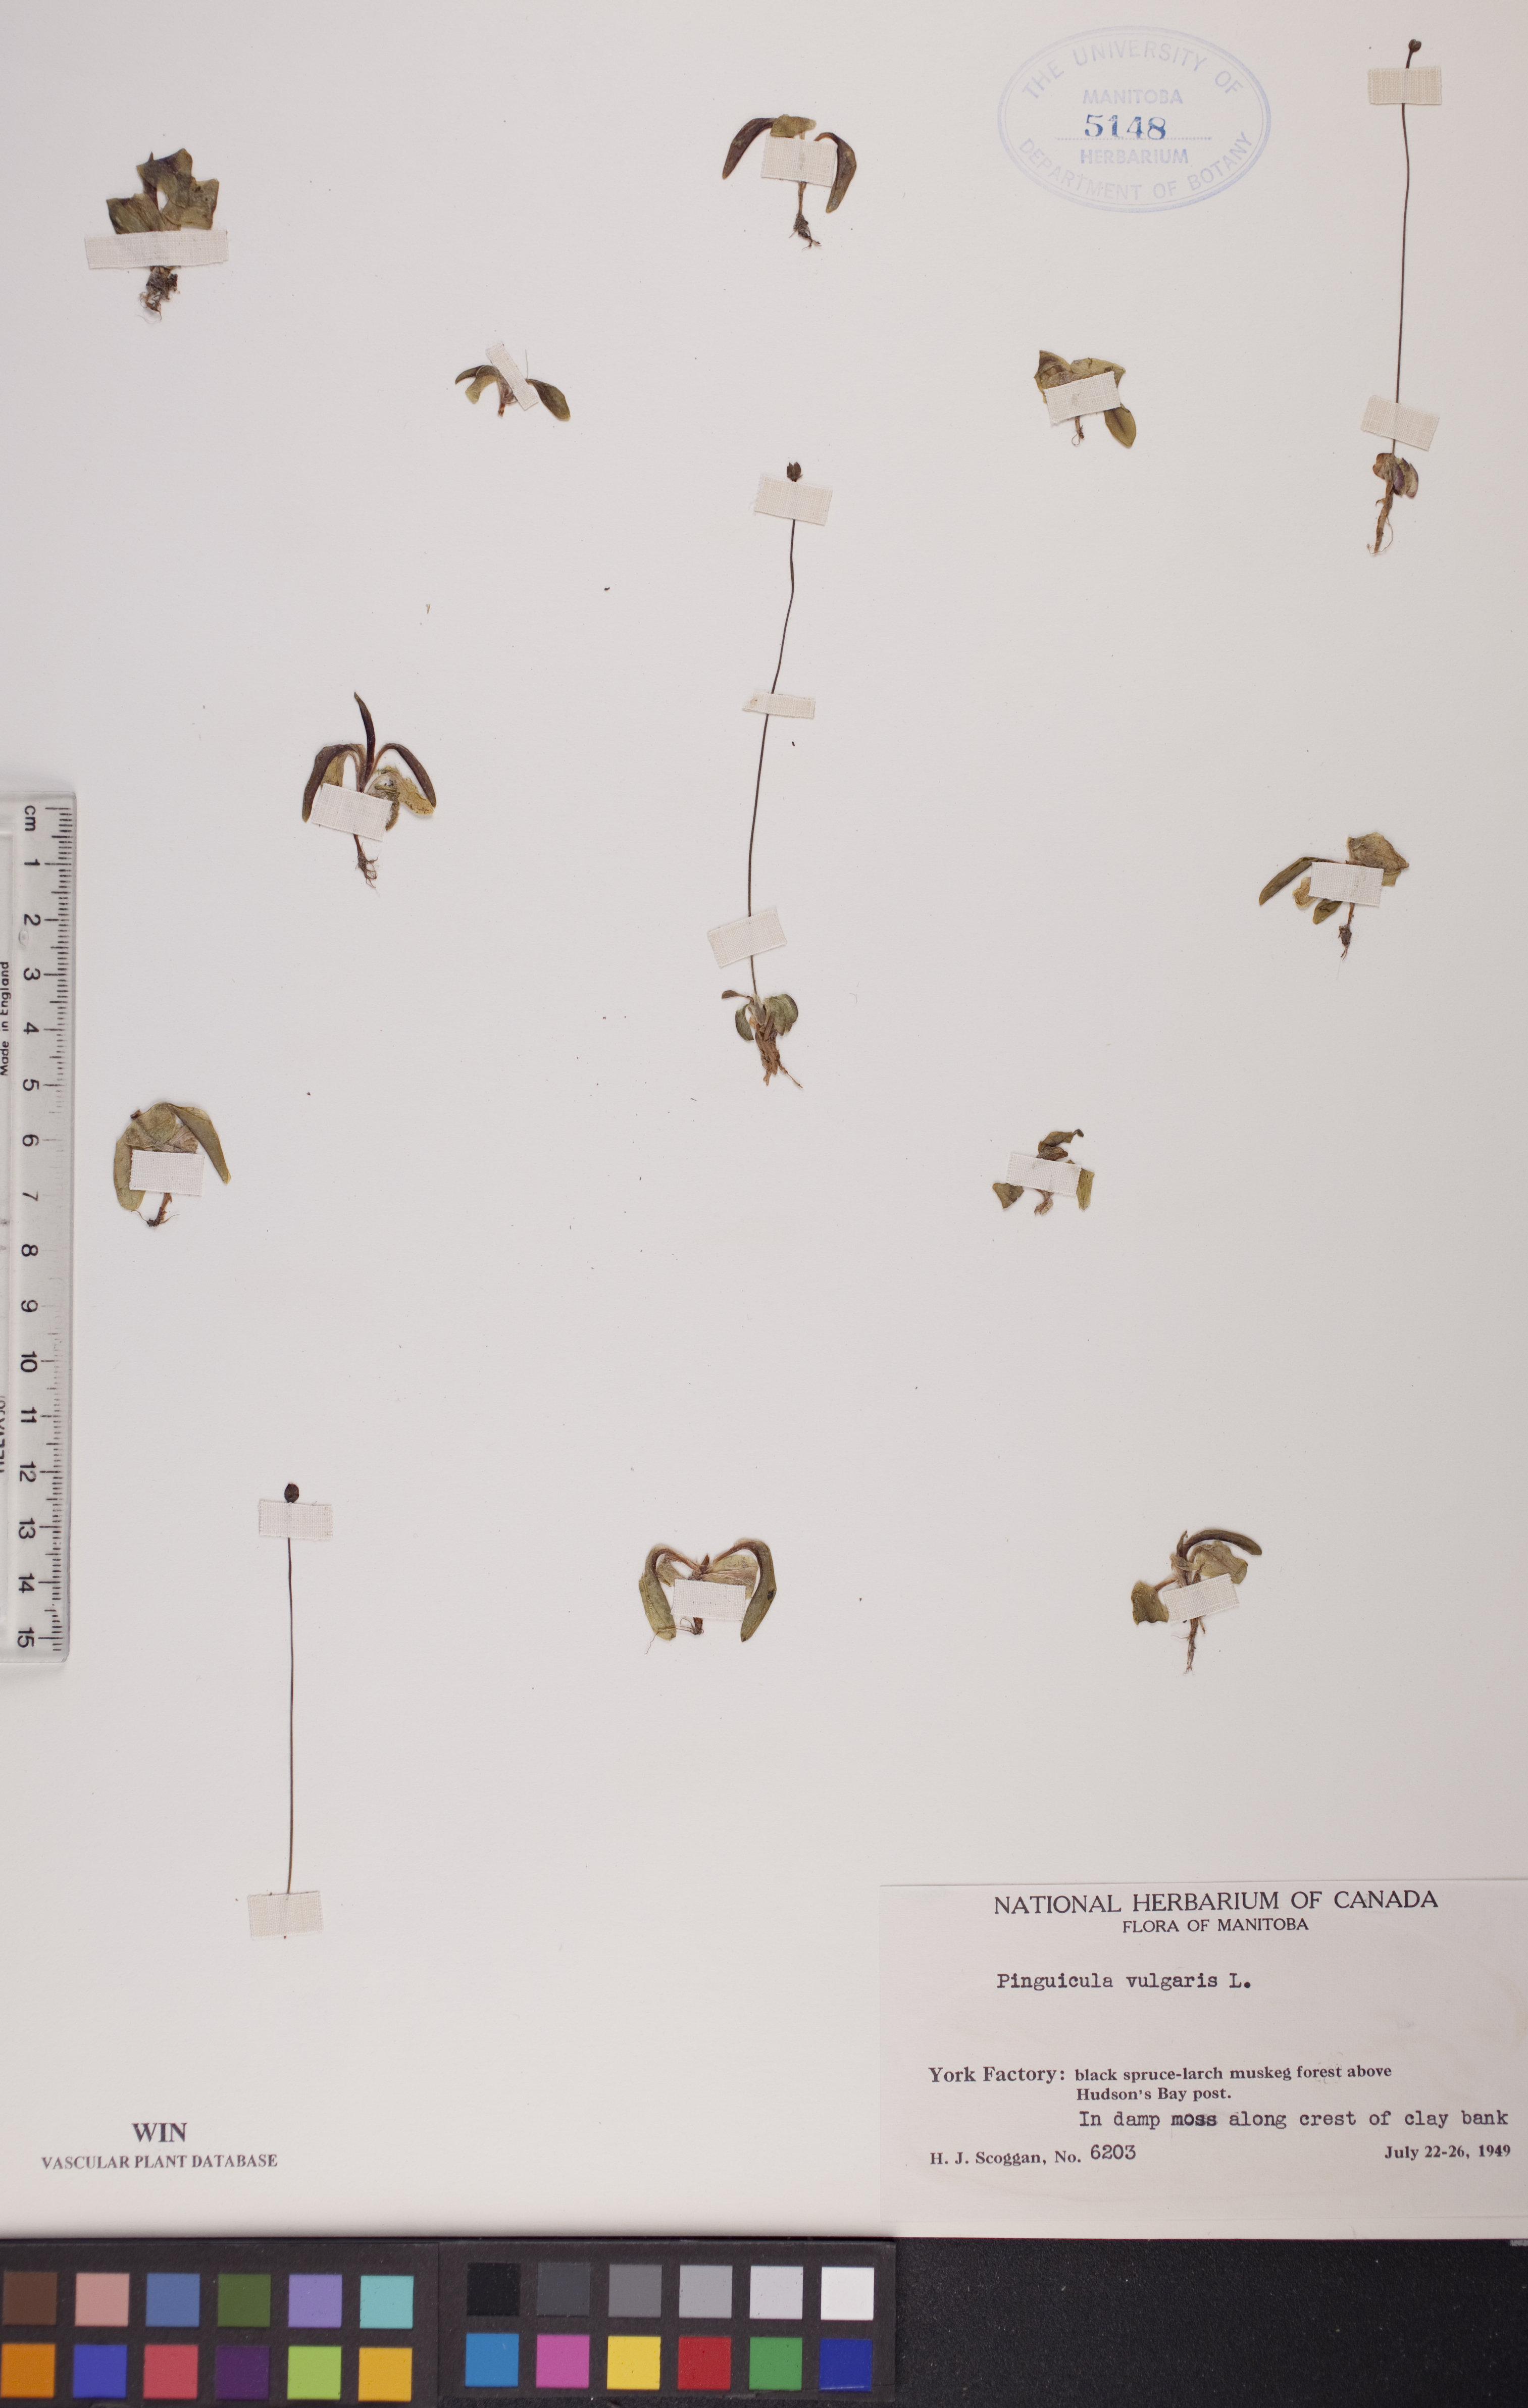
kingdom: Plantae
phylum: Tracheophyta
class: Magnoliopsida
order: Lamiales
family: Lentibulariaceae
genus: Pinguicula
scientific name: Pinguicula vulgaris
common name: Common butterwort
